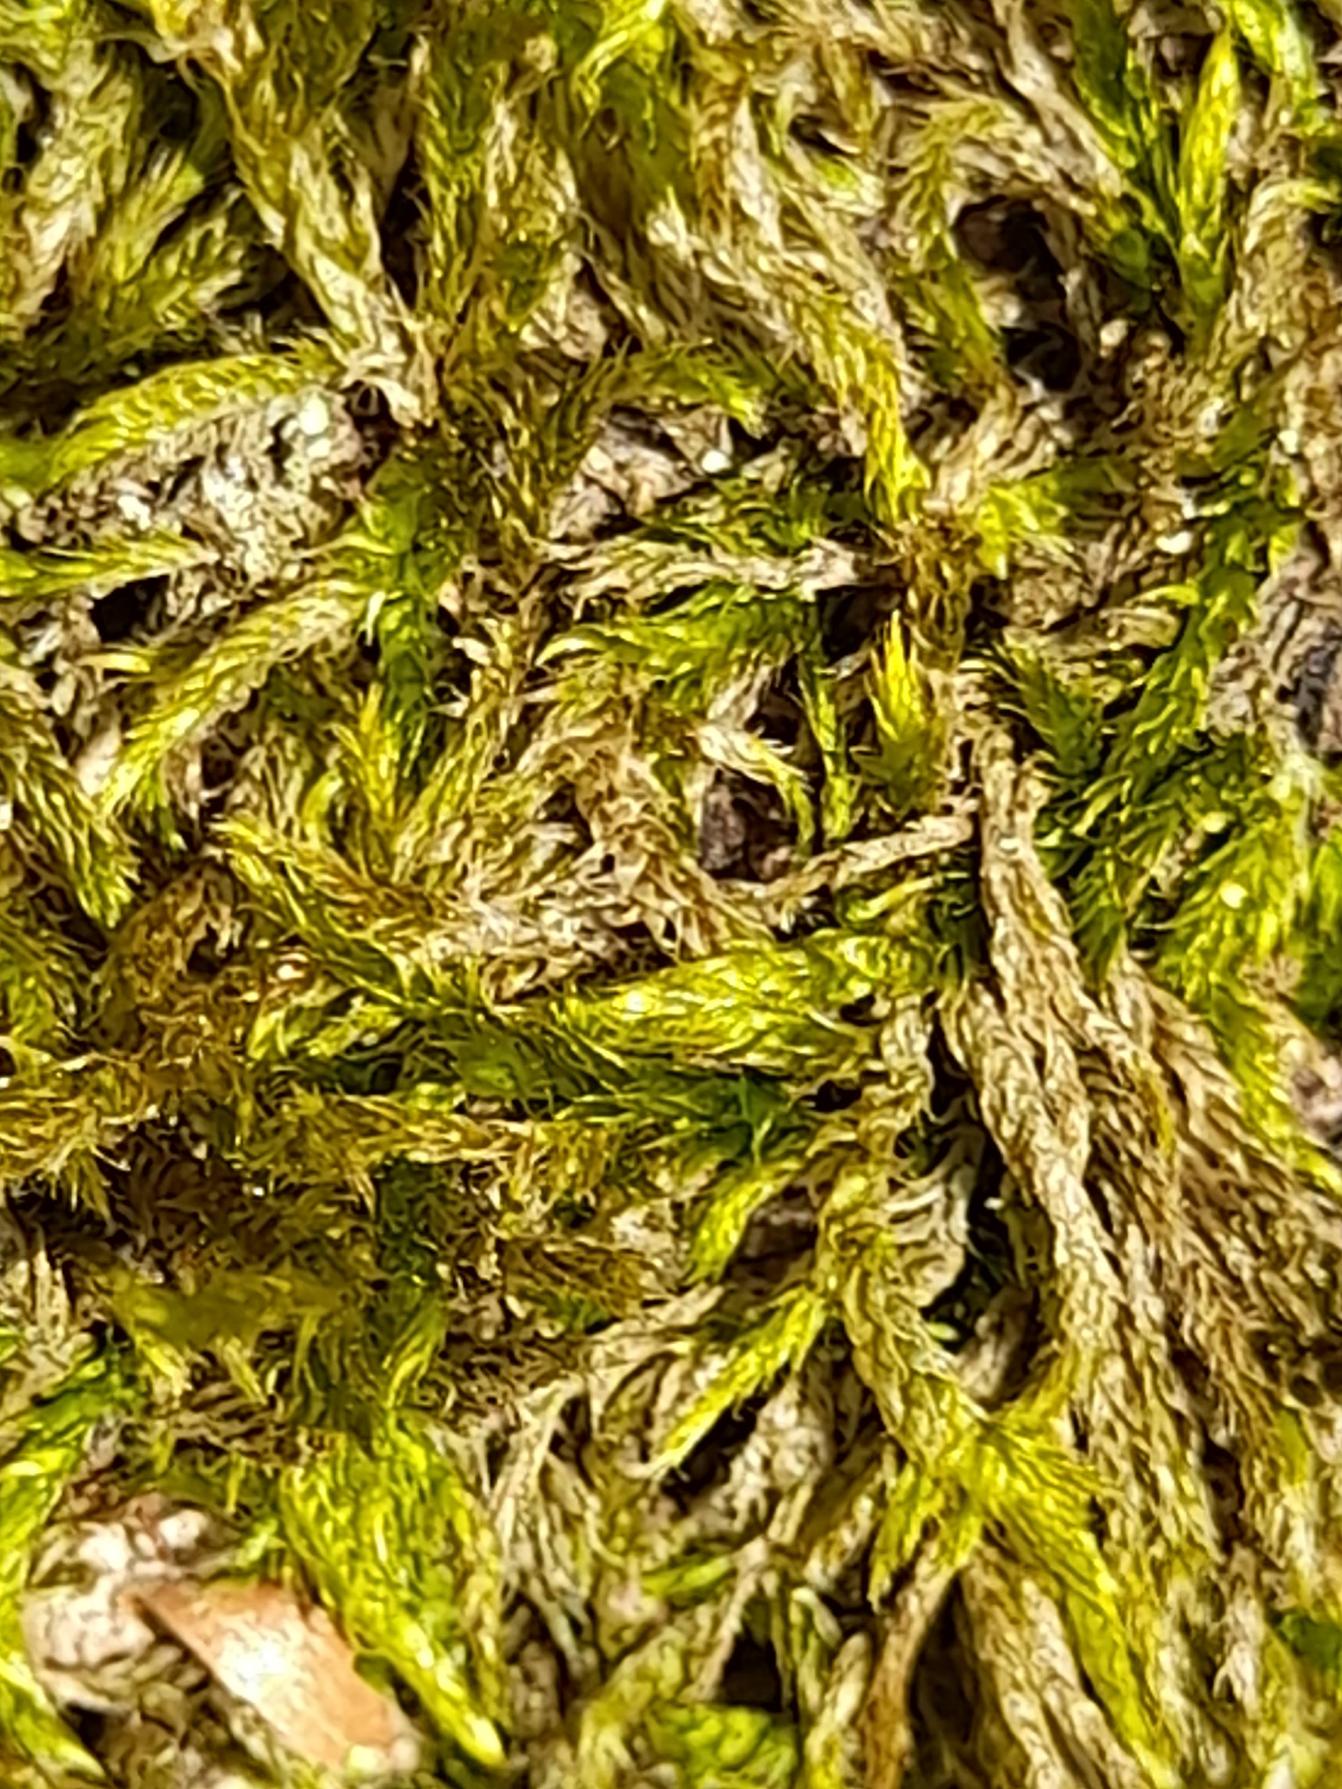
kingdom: Plantae
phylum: Bryophyta
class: Bryopsida
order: Hypnales
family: Hypnaceae
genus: Hypnum
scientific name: Hypnum cupressiforme
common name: Almindelig cypresmos
